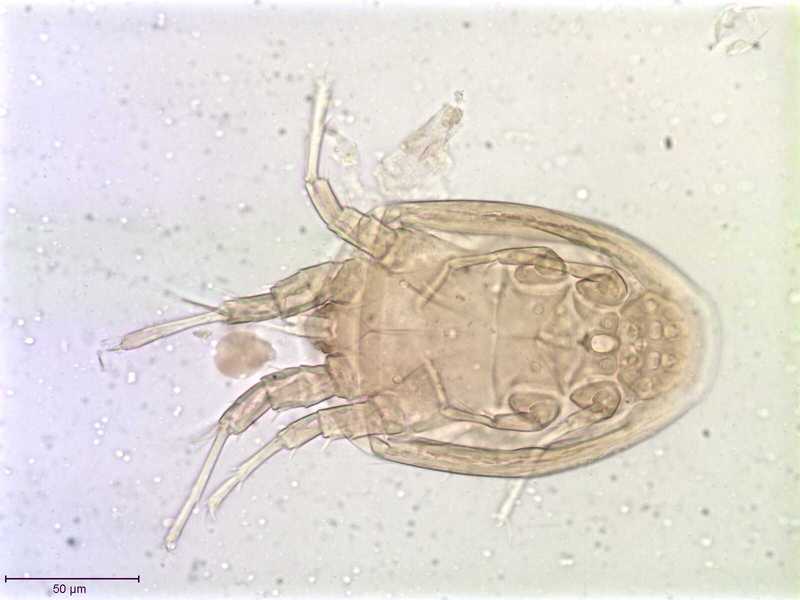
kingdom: Animalia
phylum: Arthropoda
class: Arachnida
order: Sarcoptiformes
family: Histiostomatidae
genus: Histiostoma
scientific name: Histiostoma prodectoris
